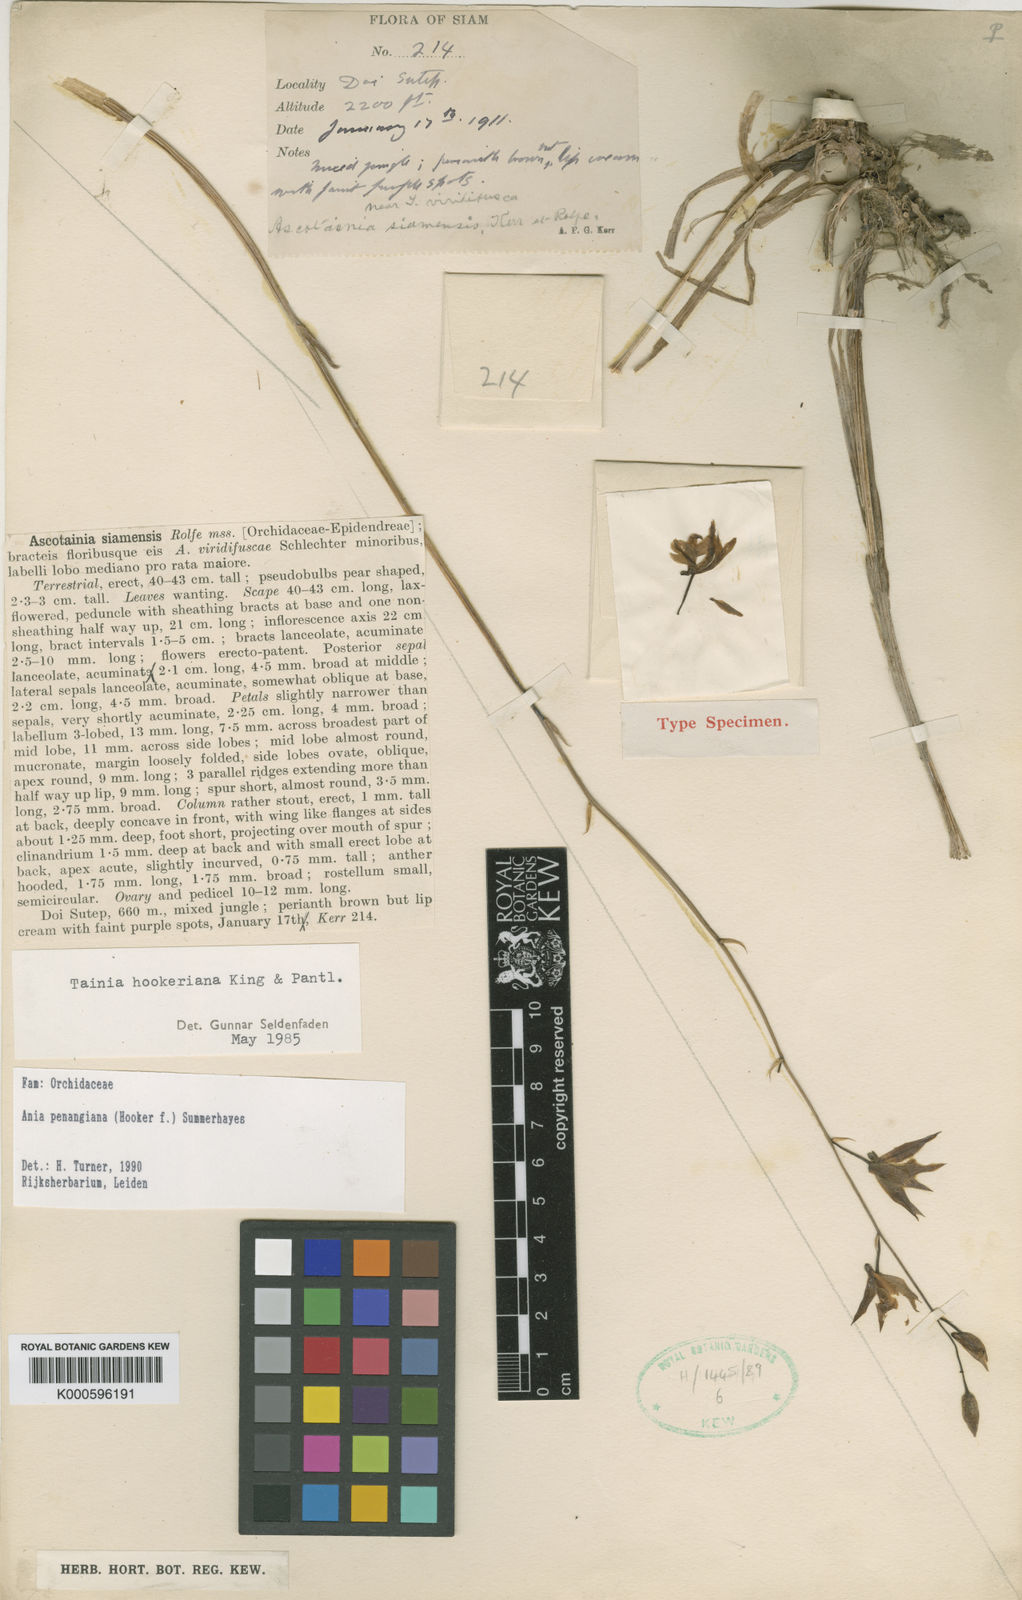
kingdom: Plantae
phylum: Tracheophyta
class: Liliopsida
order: Asparagales
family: Orchidaceae
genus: Ania
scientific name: Ania penangiana
